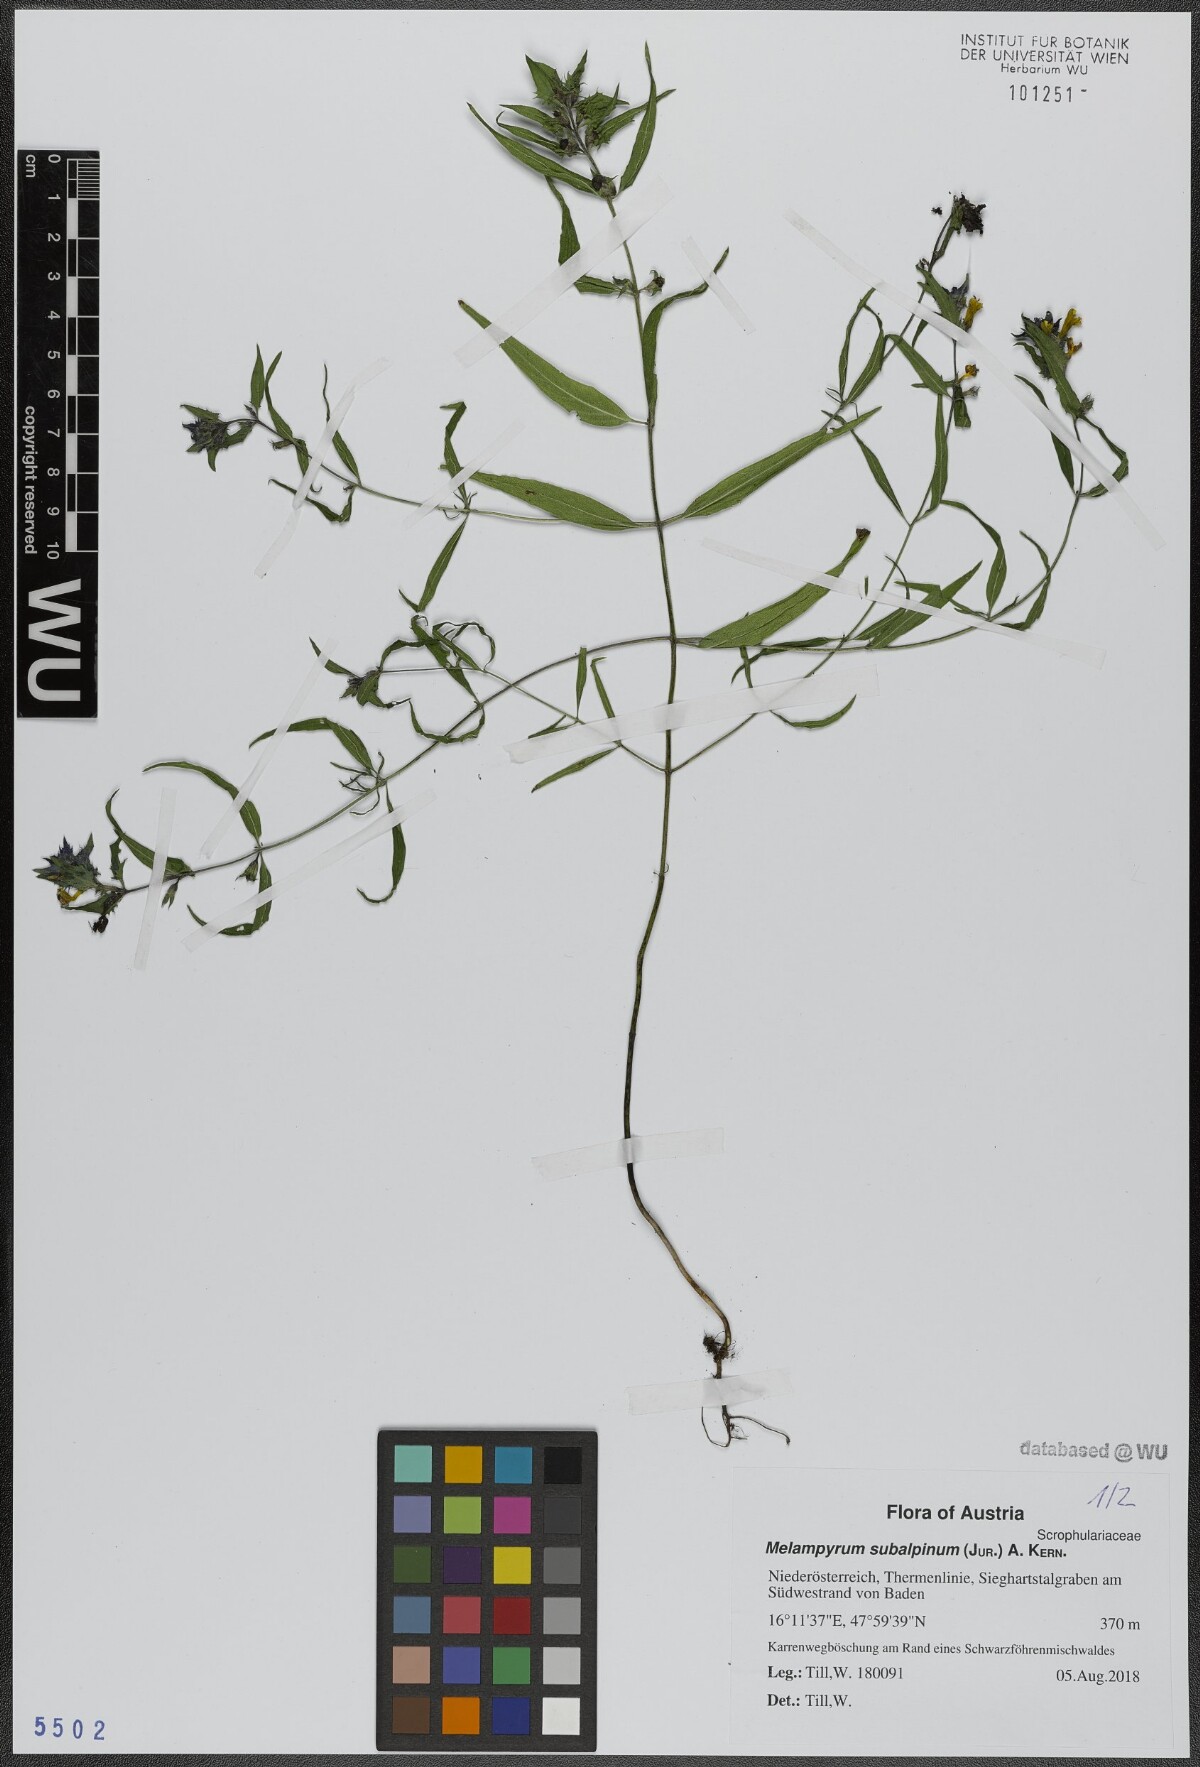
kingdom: Plantae
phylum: Tracheophyta
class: Magnoliopsida
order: Lamiales
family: Orobanchaceae
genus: Melampyrum
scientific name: Melampyrum subalpinum
